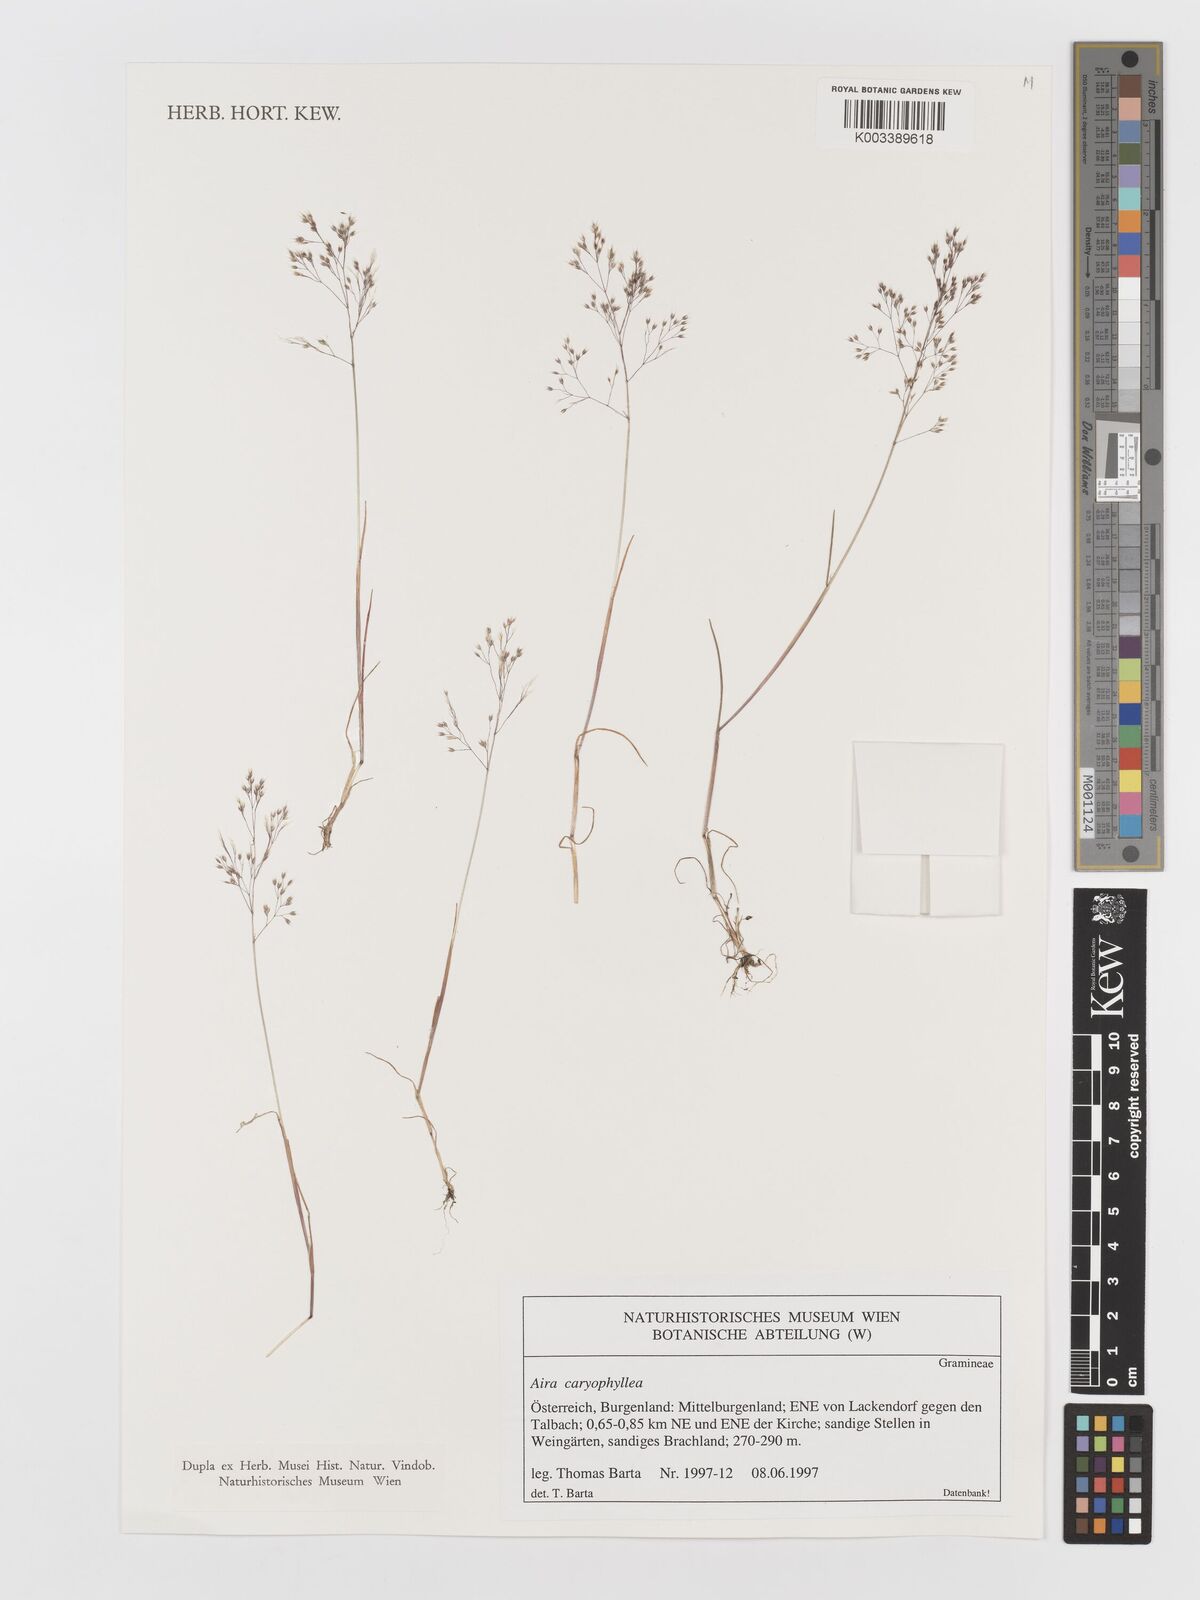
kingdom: Plantae
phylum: Tracheophyta
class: Liliopsida
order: Poales
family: Poaceae
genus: Aira
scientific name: Aira caryophyllea
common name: Silver hairgrass
